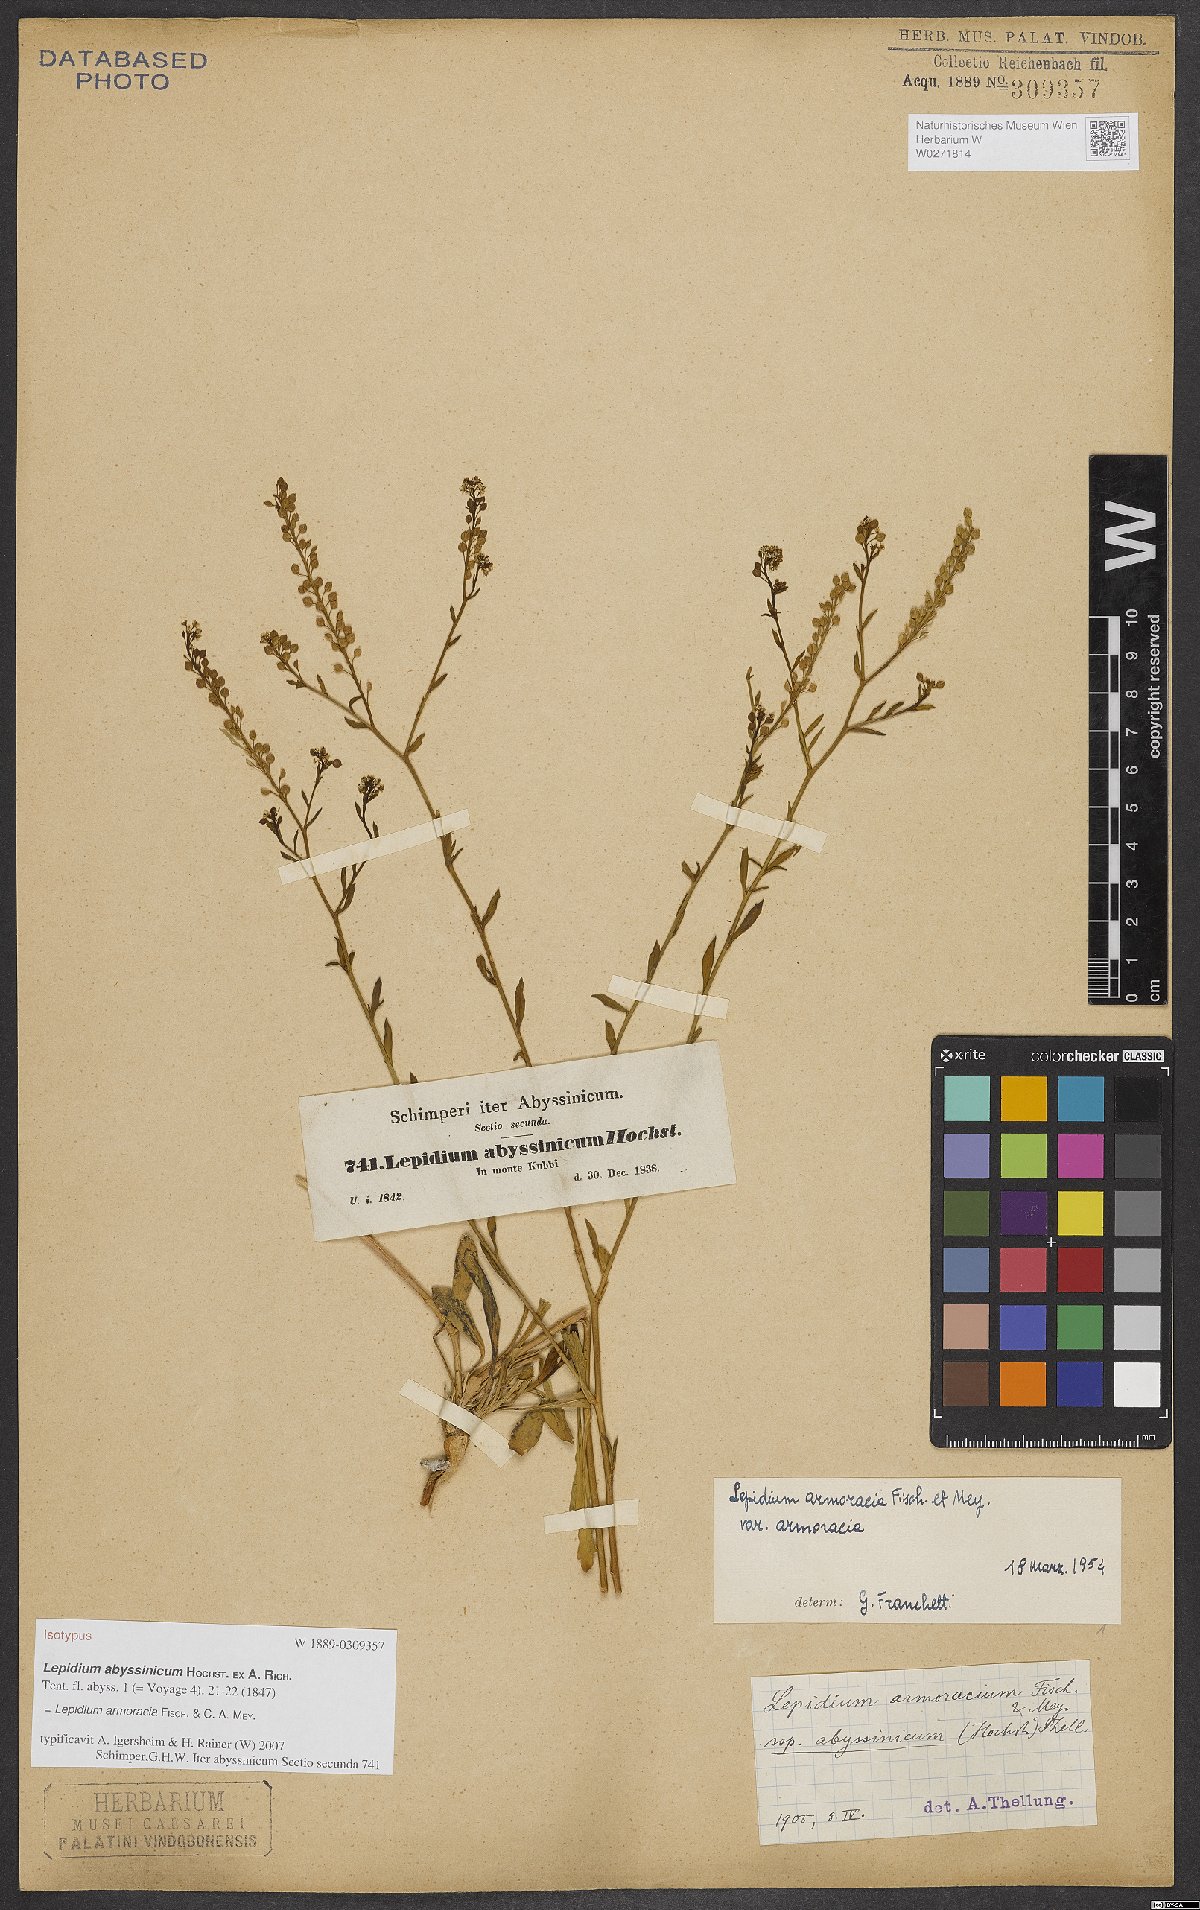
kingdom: Plantae
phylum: Tracheophyta
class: Magnoliopsida
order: Brassicales
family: Brassicaceae
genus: Lepidium
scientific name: Lepidium armoracia
